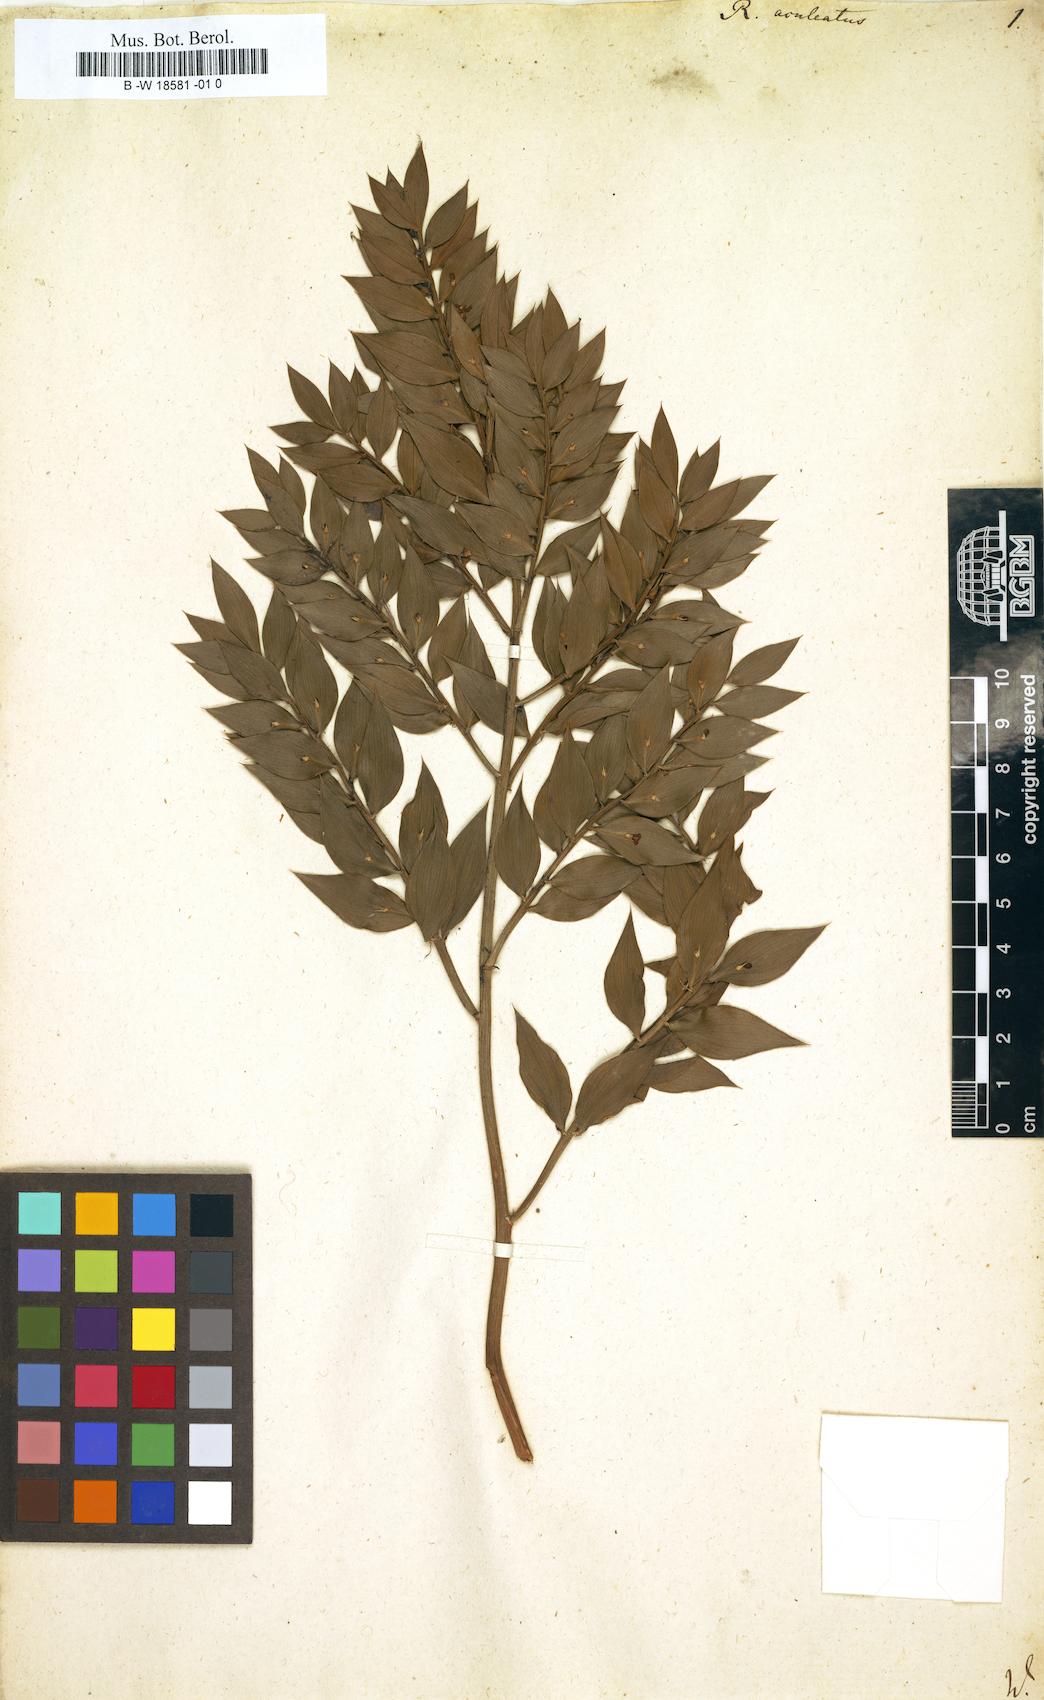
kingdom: Plantae
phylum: Tracheophyta
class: Liliopsida
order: Asparagales
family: Asparagaceae
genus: Ruscus
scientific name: Ruscus aculeatus
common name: Butcher's-broom
